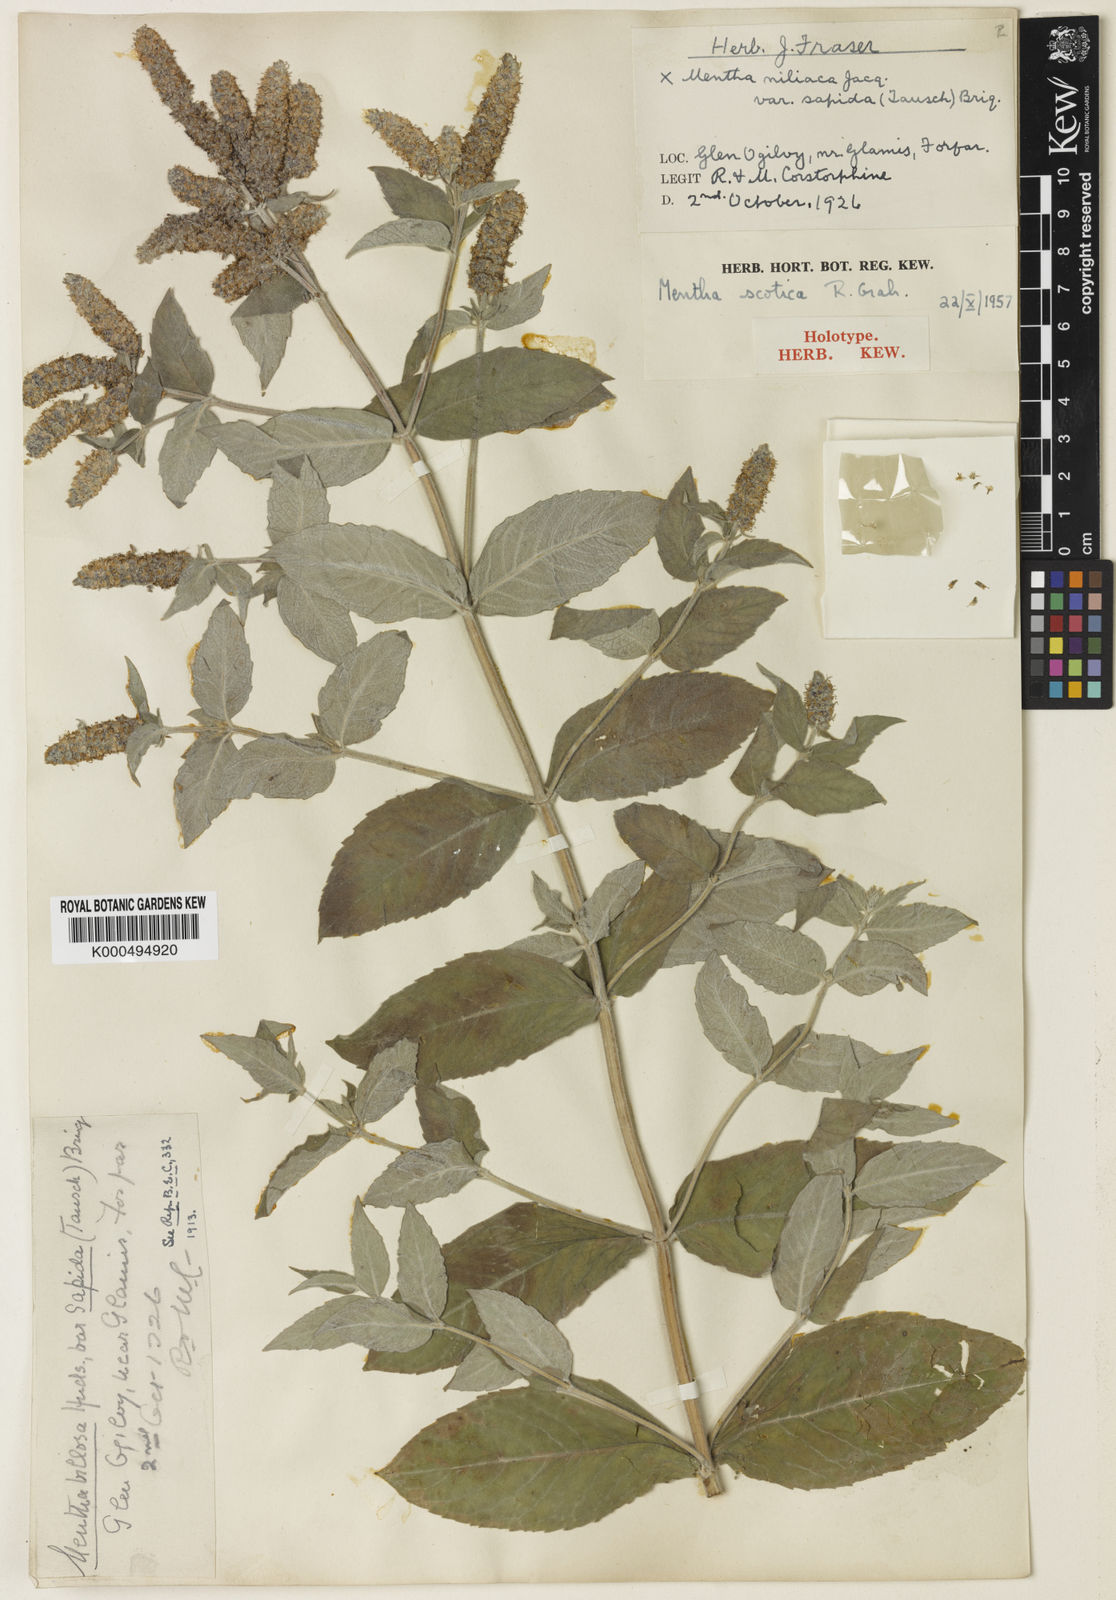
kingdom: Plantae
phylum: Tracheophyta
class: Magnoliopsida
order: Lamiales
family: Lamiaceae
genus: Mentha
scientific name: Mentha spicata
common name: Spearmint
